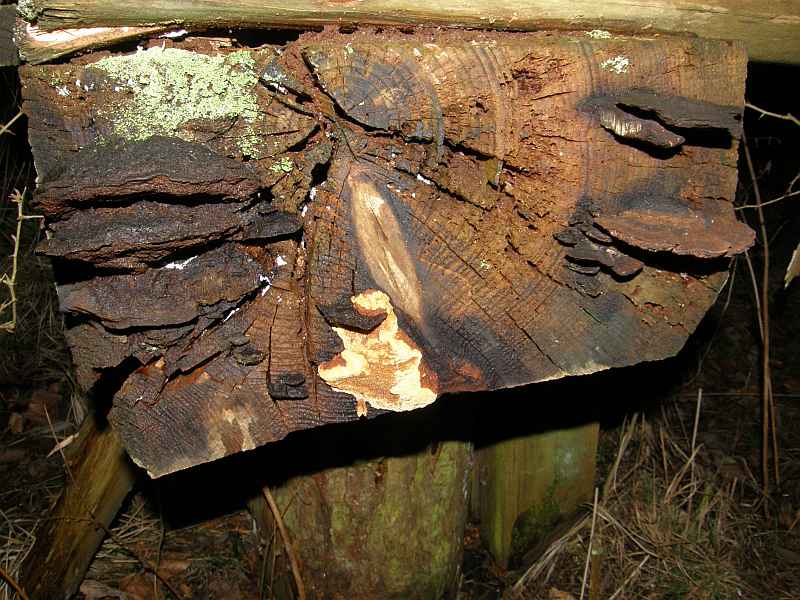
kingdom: Fungi
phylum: Basidiomycota
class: Agaricomycetes
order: Gloeophyllales
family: Gloeophyllaceae
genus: Gloeophyllum
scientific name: Gloeophyllum odoratum
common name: duftende korkhat
